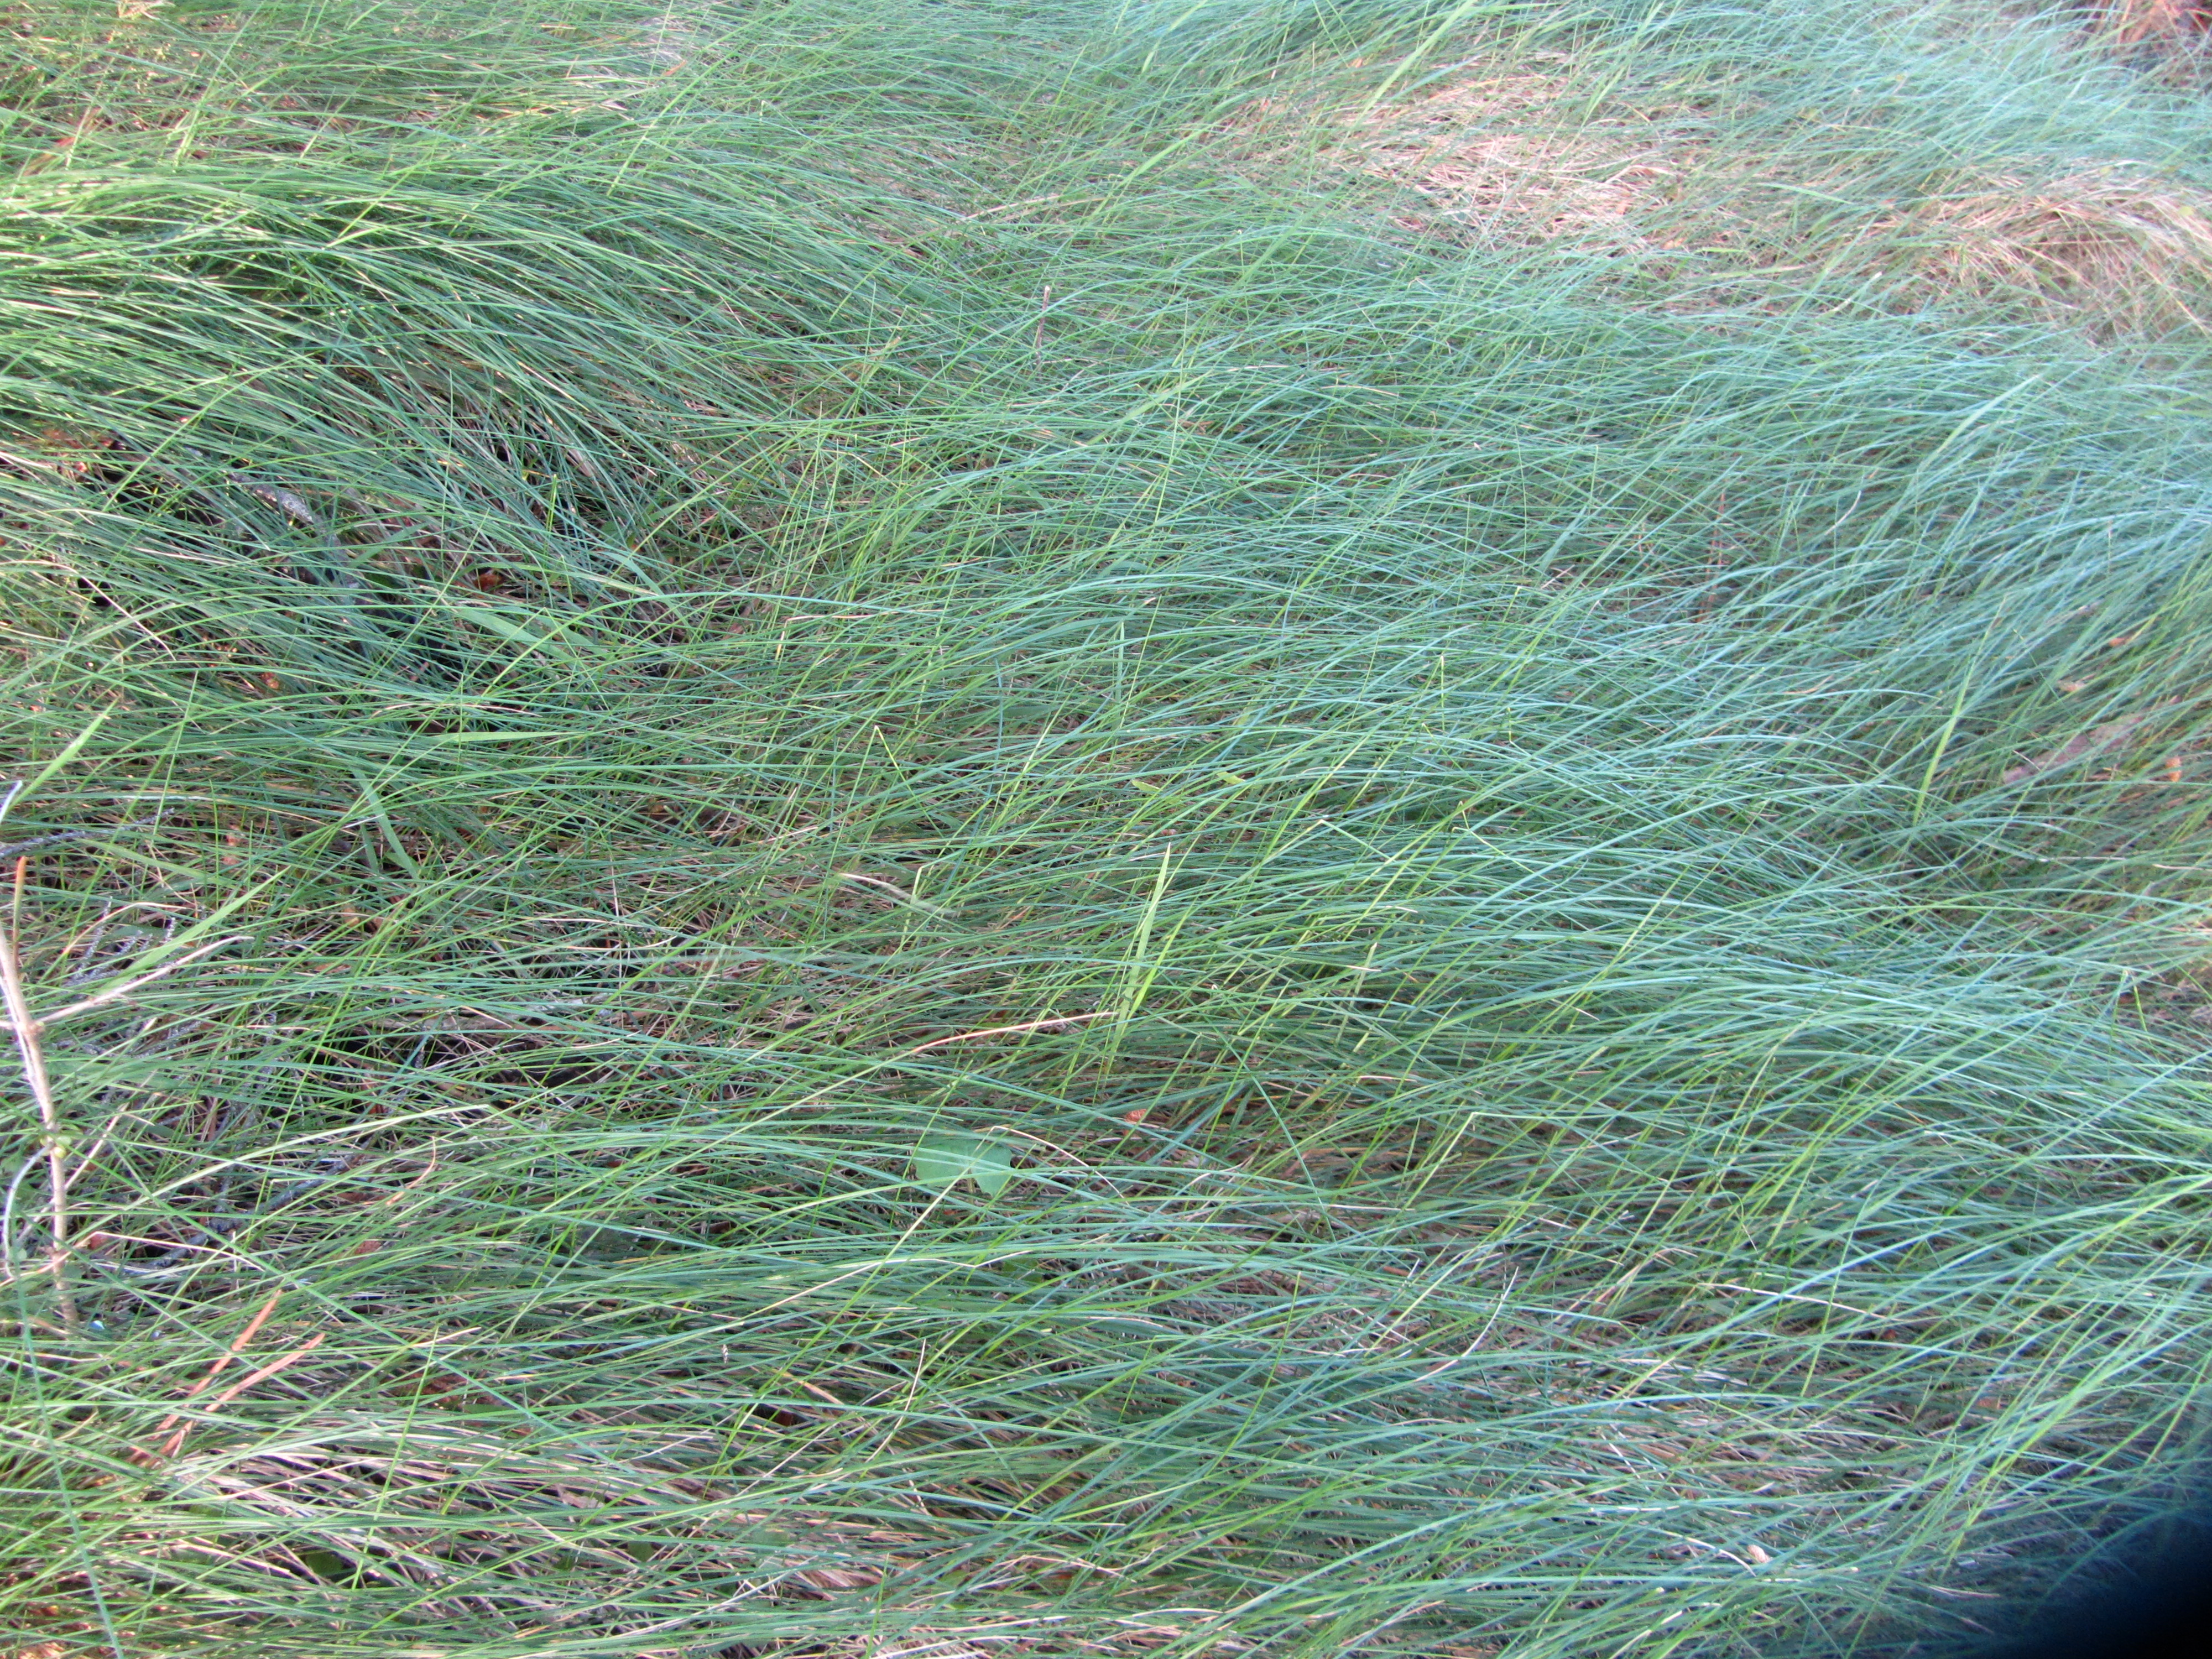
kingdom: Plantae
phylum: Tracheophyta
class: Liliopsida
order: Poales
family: Poaceae
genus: Festuca
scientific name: Festuca rubra
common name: Red fescue
